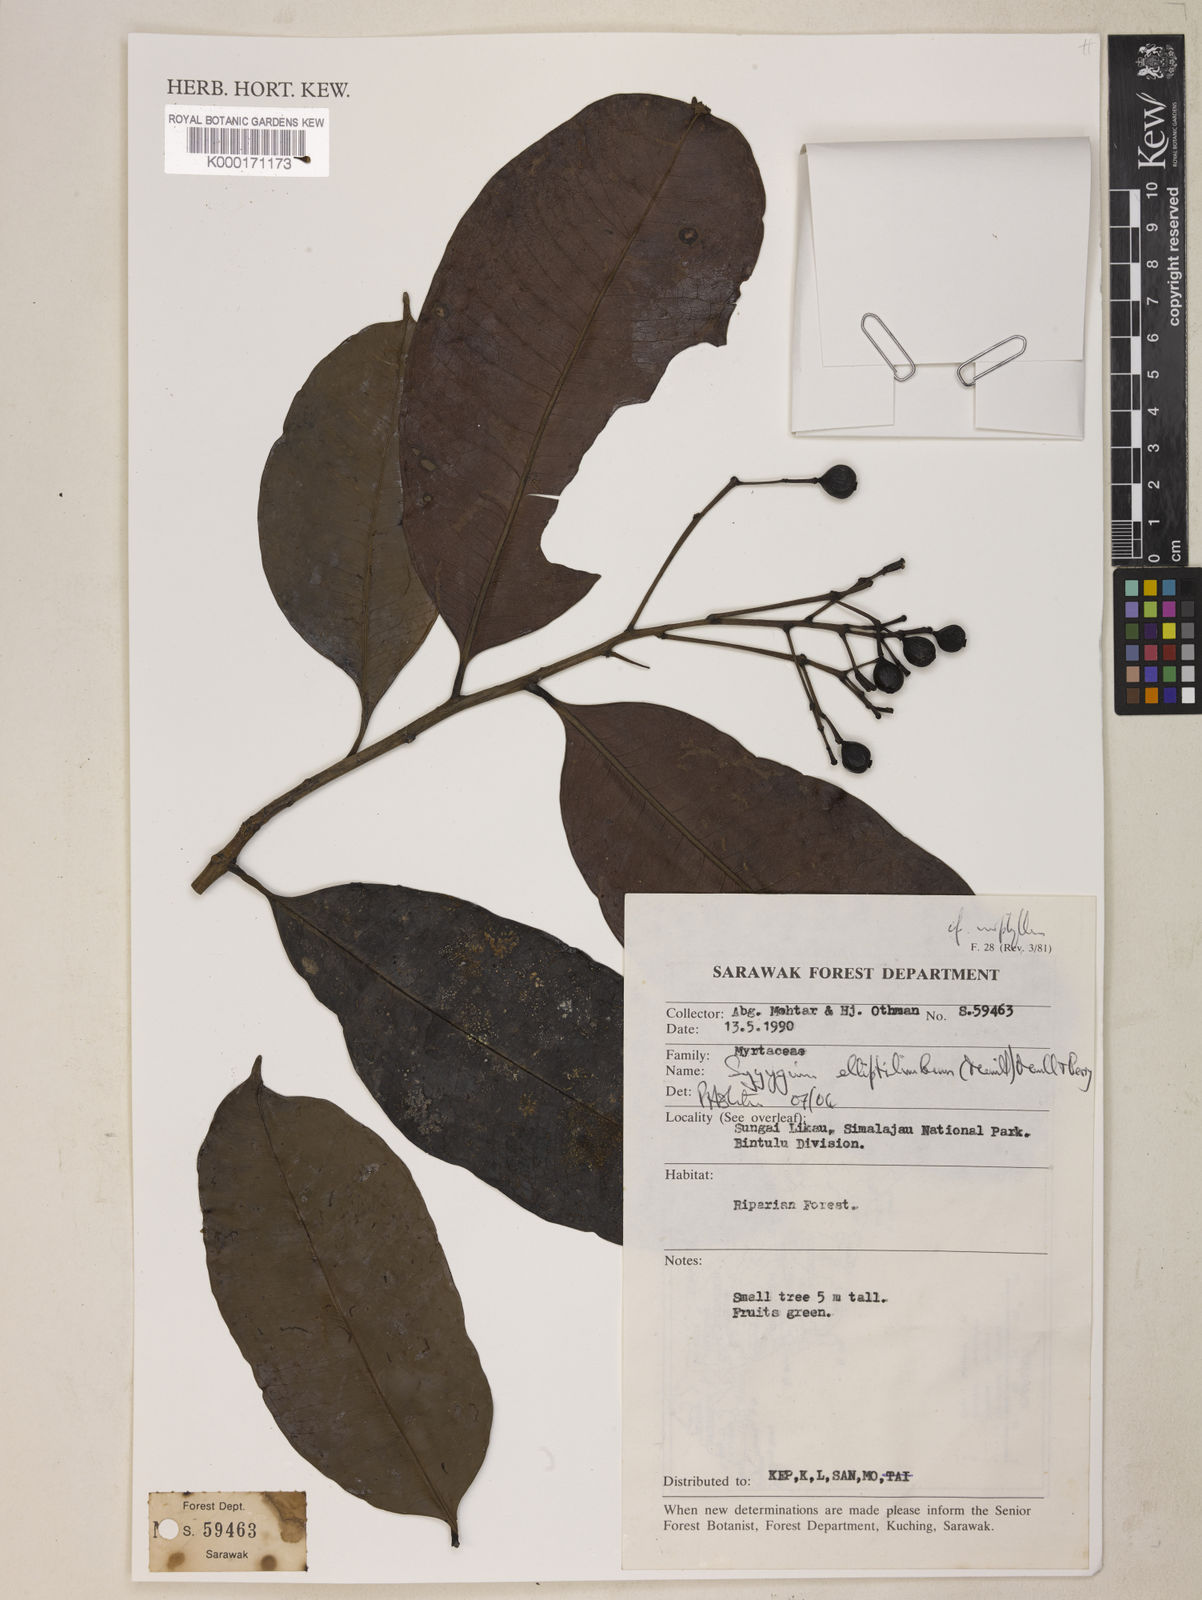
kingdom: Plantae
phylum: Tracheophyta
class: Magnoliopsida
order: Myrtales
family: Myrtaceae
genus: Syzygium
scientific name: Syzygium elliptilimbum
